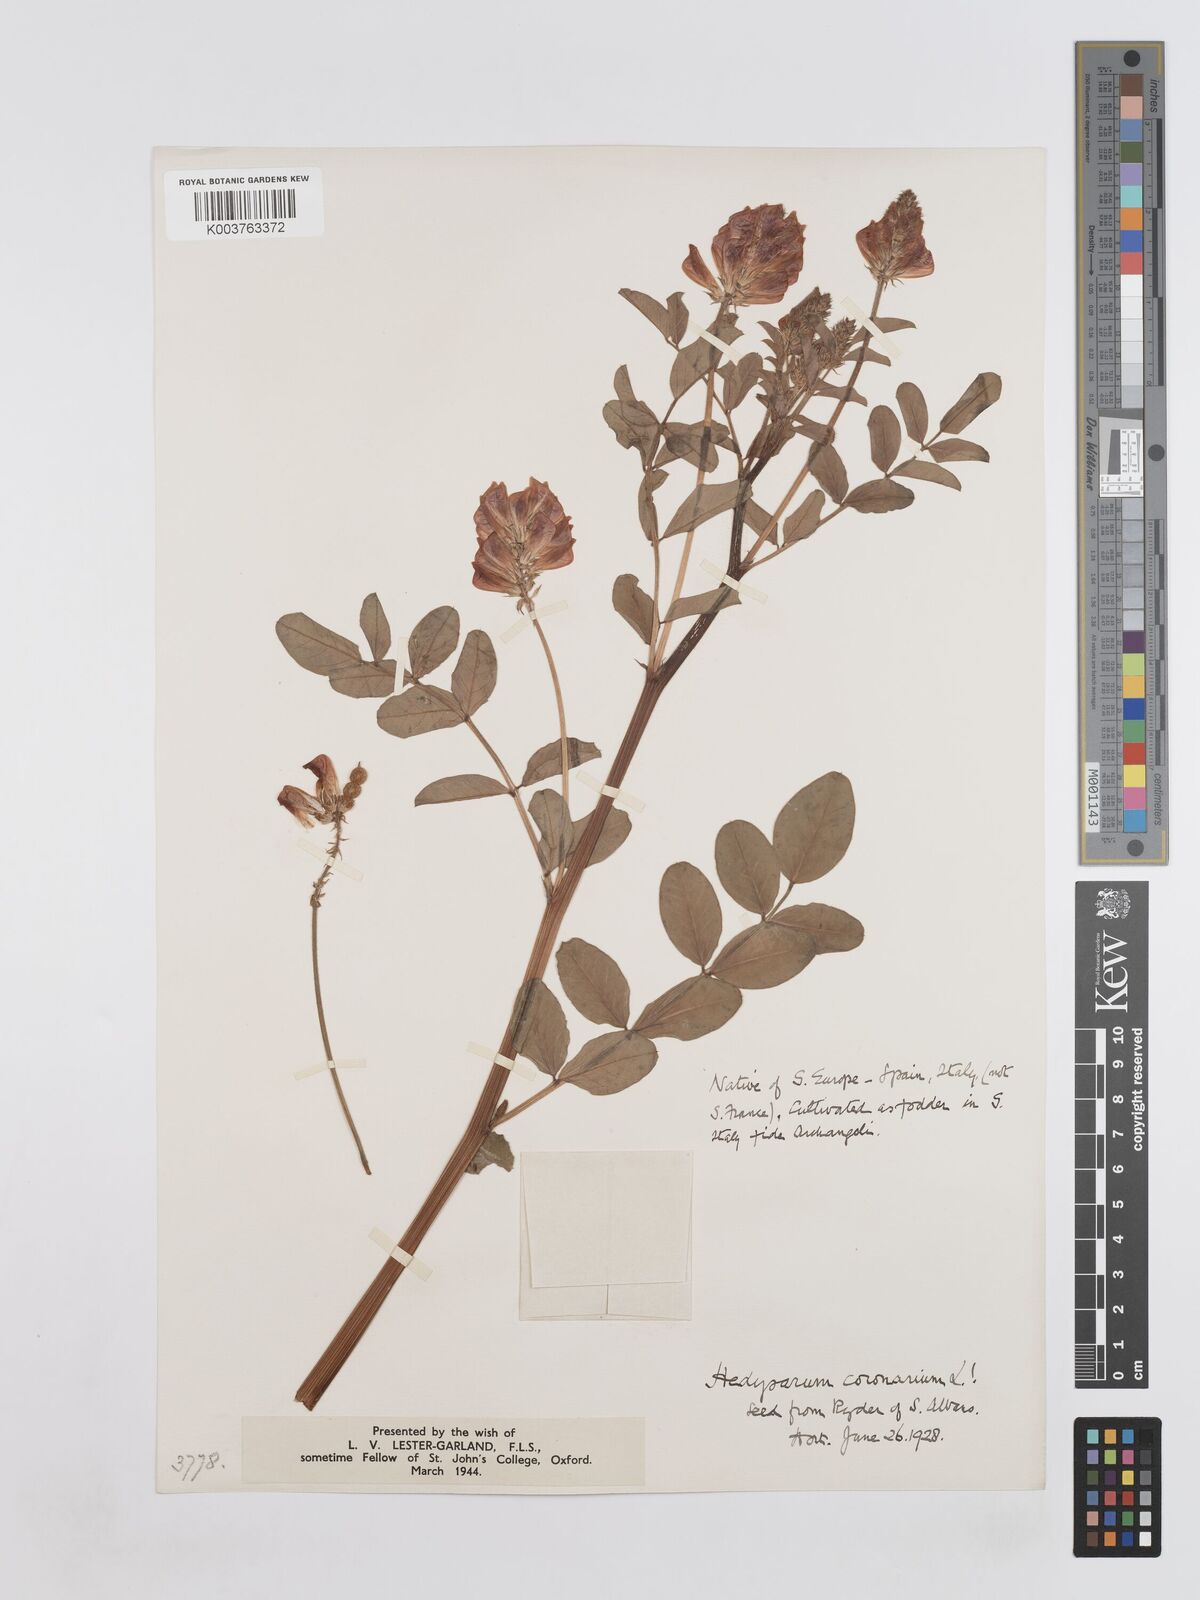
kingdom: Plantae
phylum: Tracheophyta
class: Magnoliopsida
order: Fabales
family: Fabaceae
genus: Sulla
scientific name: Sulla coronaria
